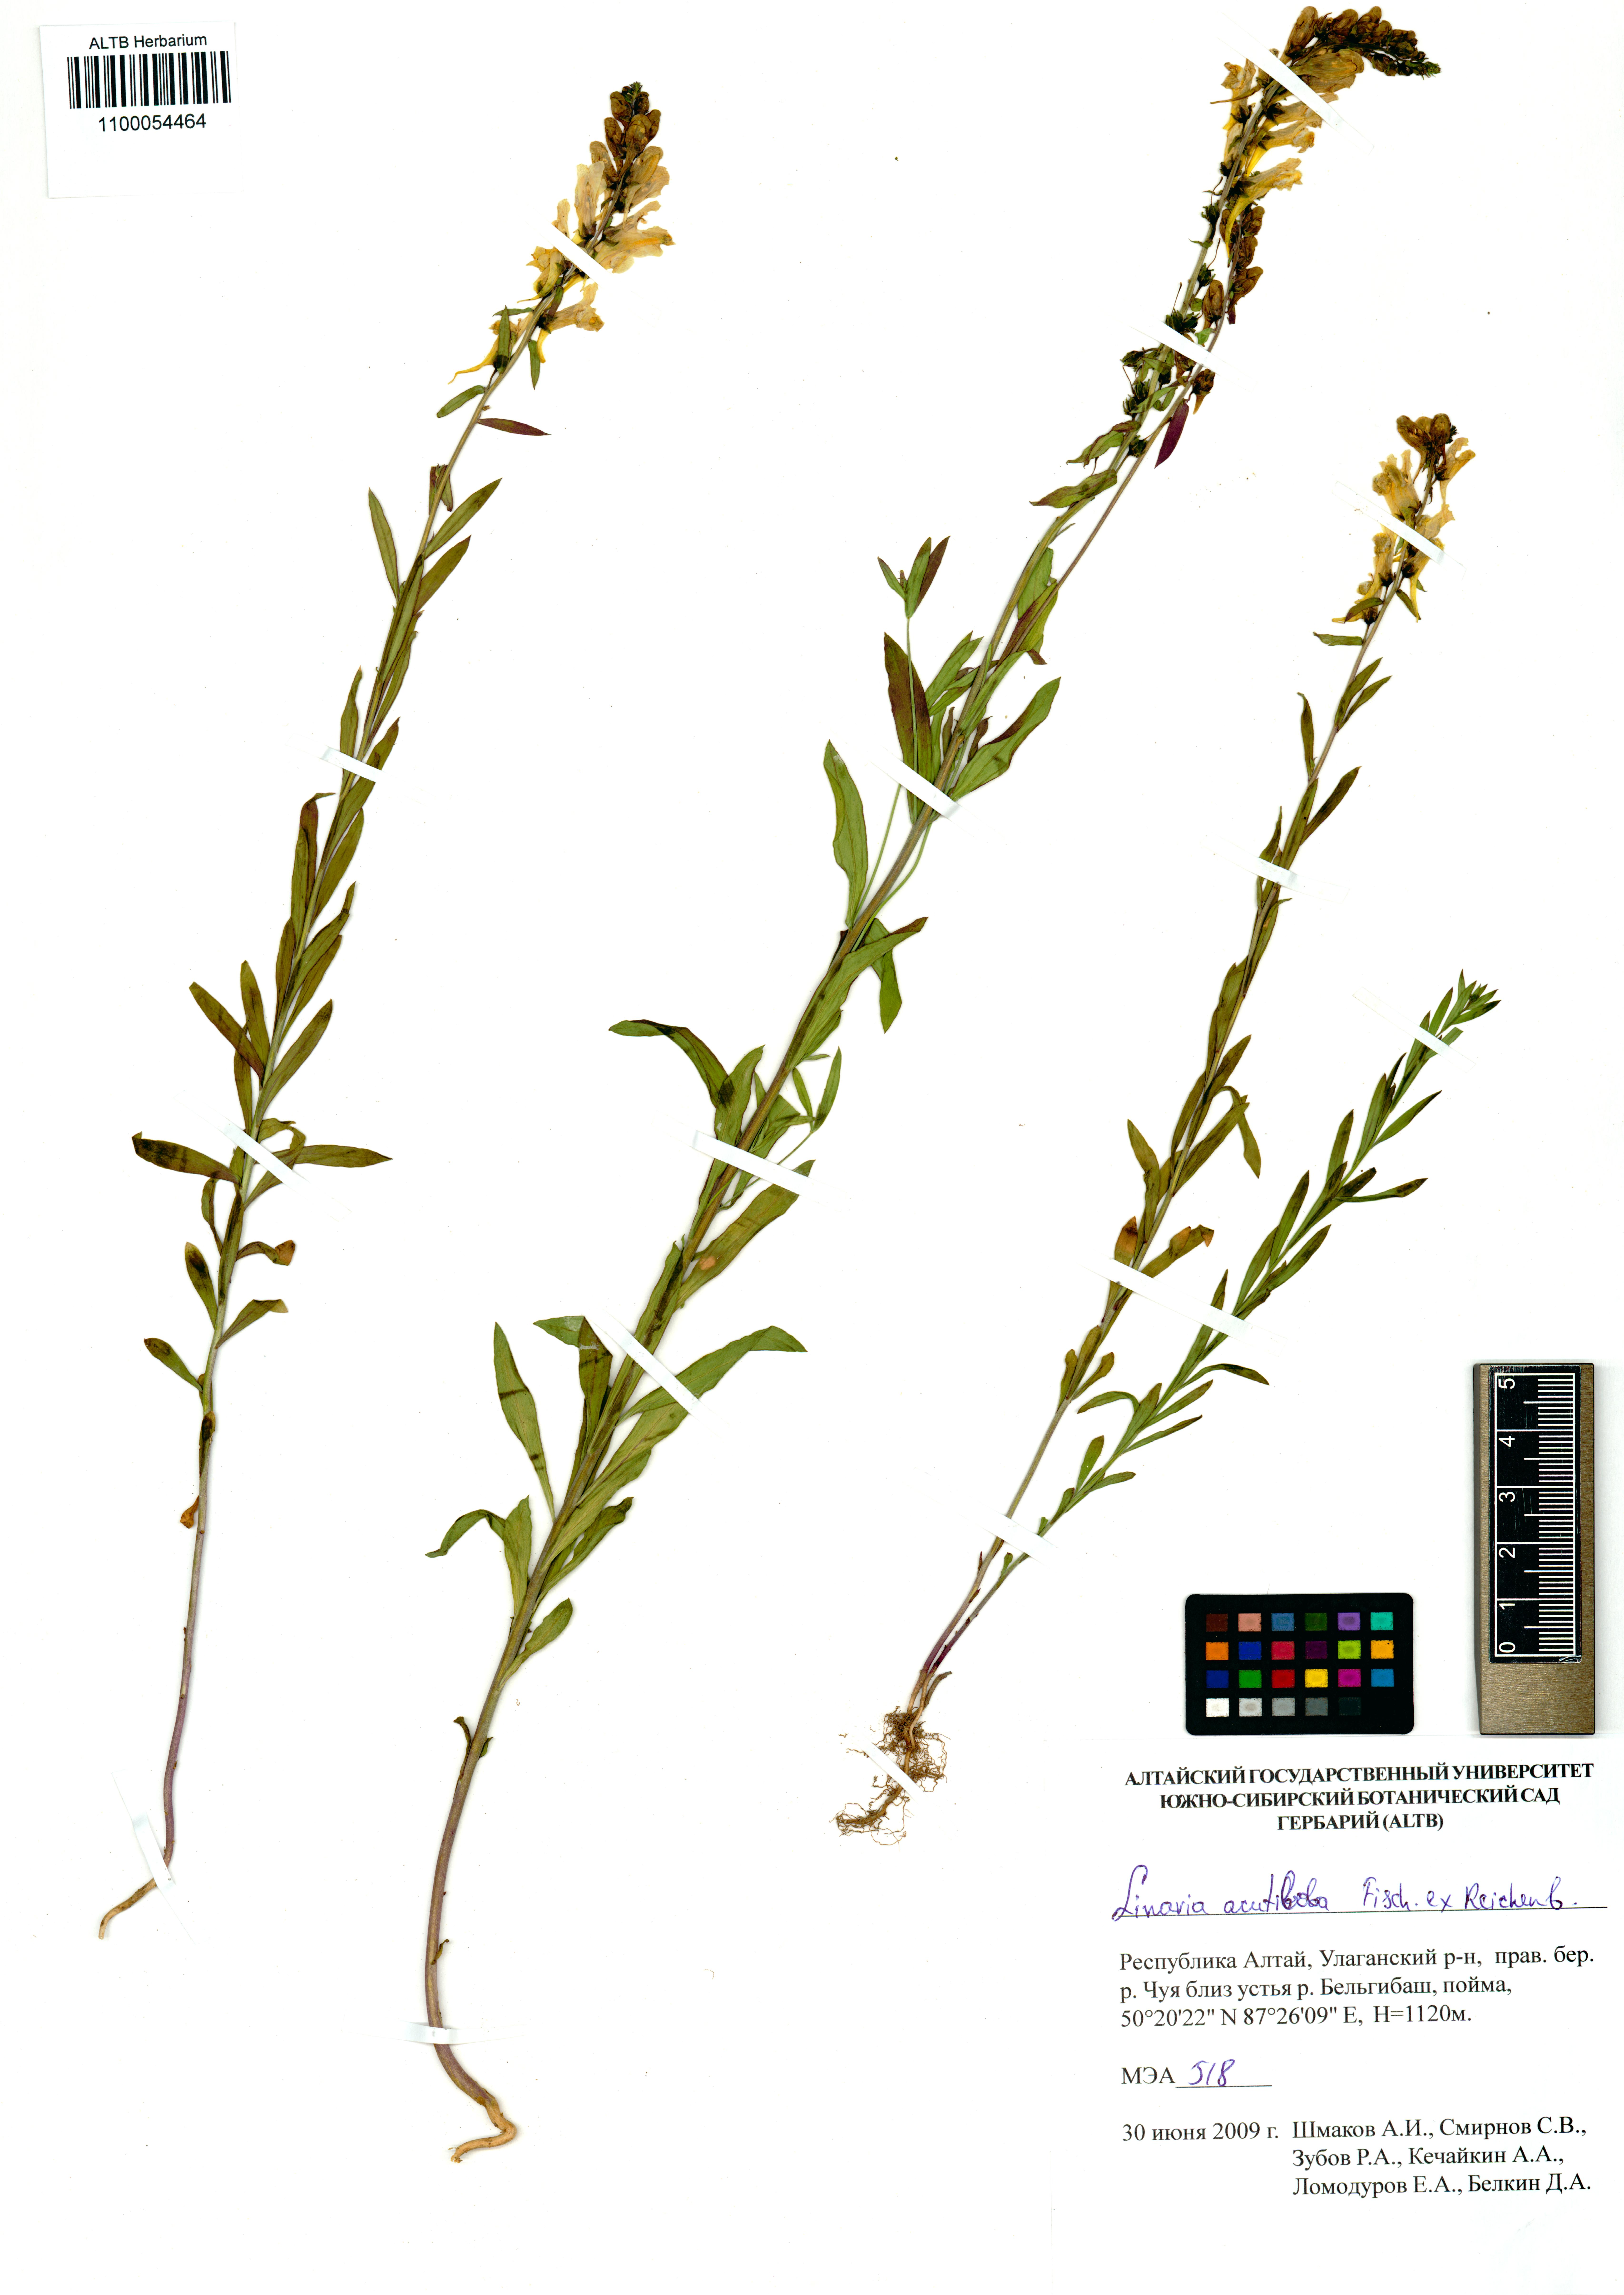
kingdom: Plantae
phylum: Tracheophyta
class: Magnoliopsida
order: Lamiales
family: Plantaginaceae
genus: Linaria
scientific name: Linaria acutiloba
